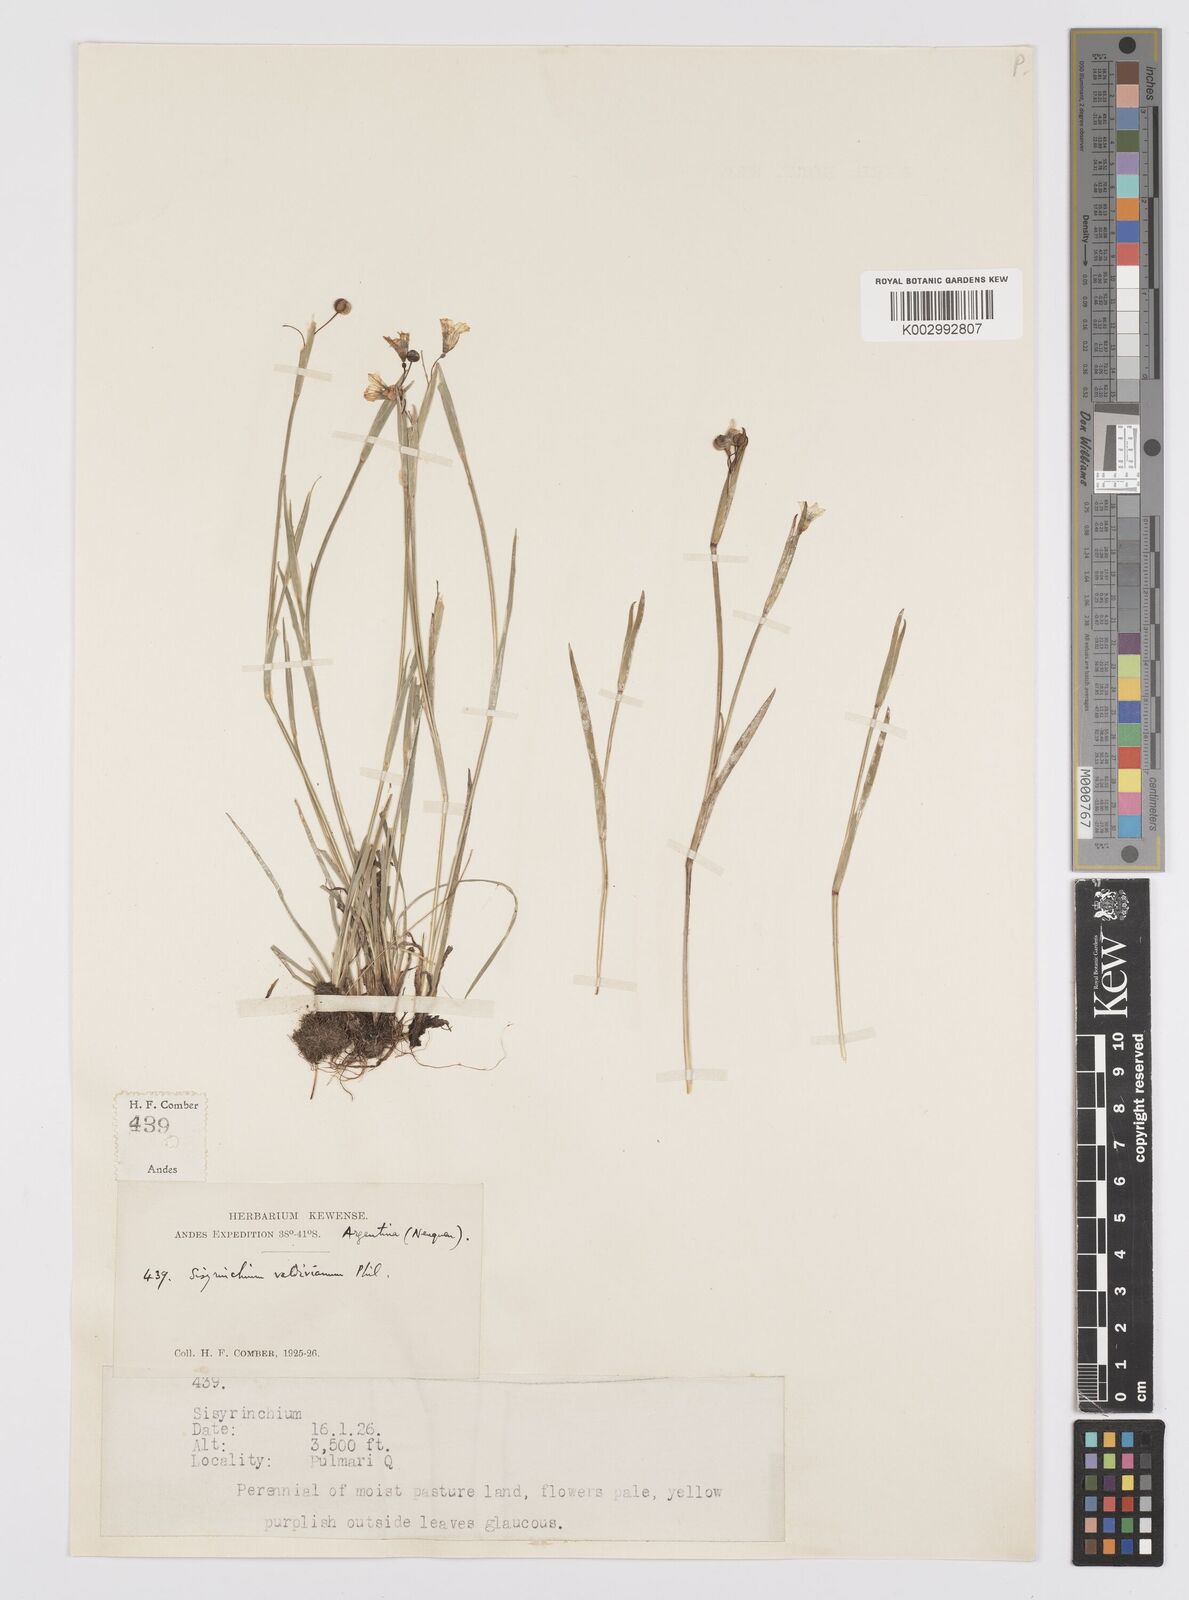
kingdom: Plantae
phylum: Tracheophyta
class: Liliopsida
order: Asparagales
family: Iridaceae
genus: Sisyrinchium
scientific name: Sisyrinchium chilense
